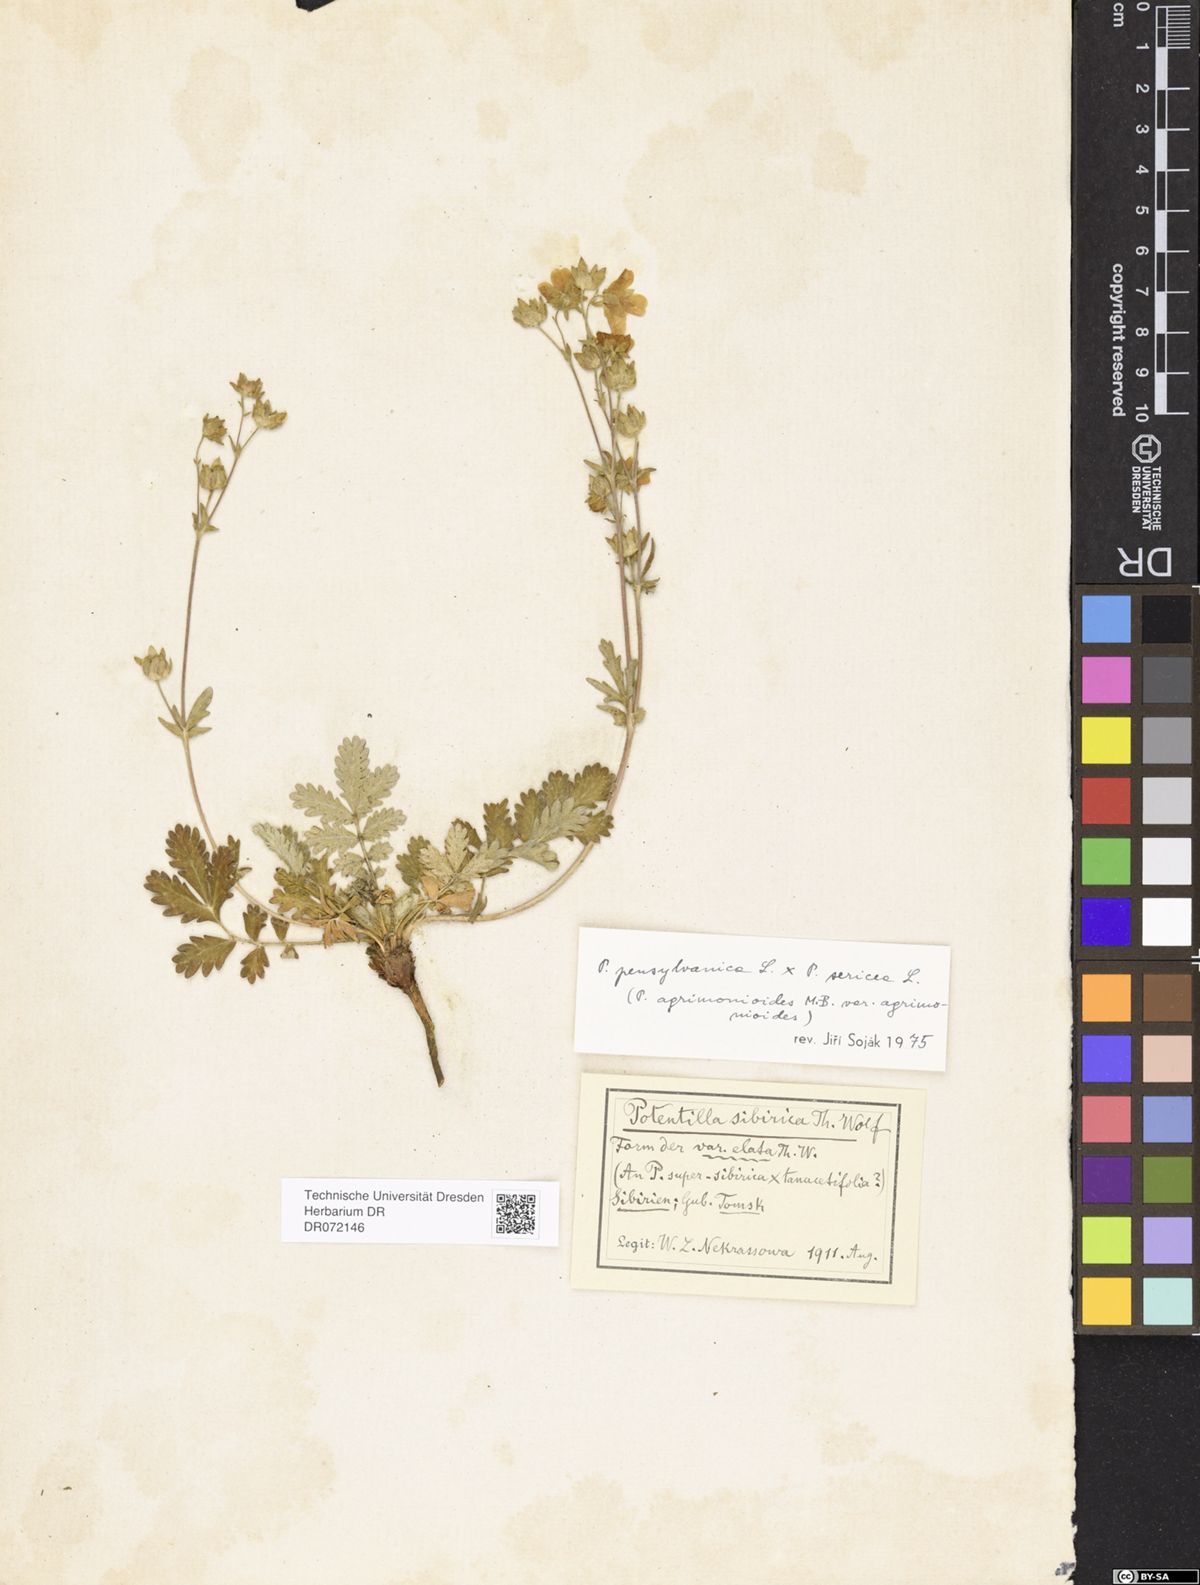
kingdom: Plantae
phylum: Tracheophyta
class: Magnoliopsida
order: Rosales
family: Rosaceae
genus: Potentilla
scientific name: Potentilla
